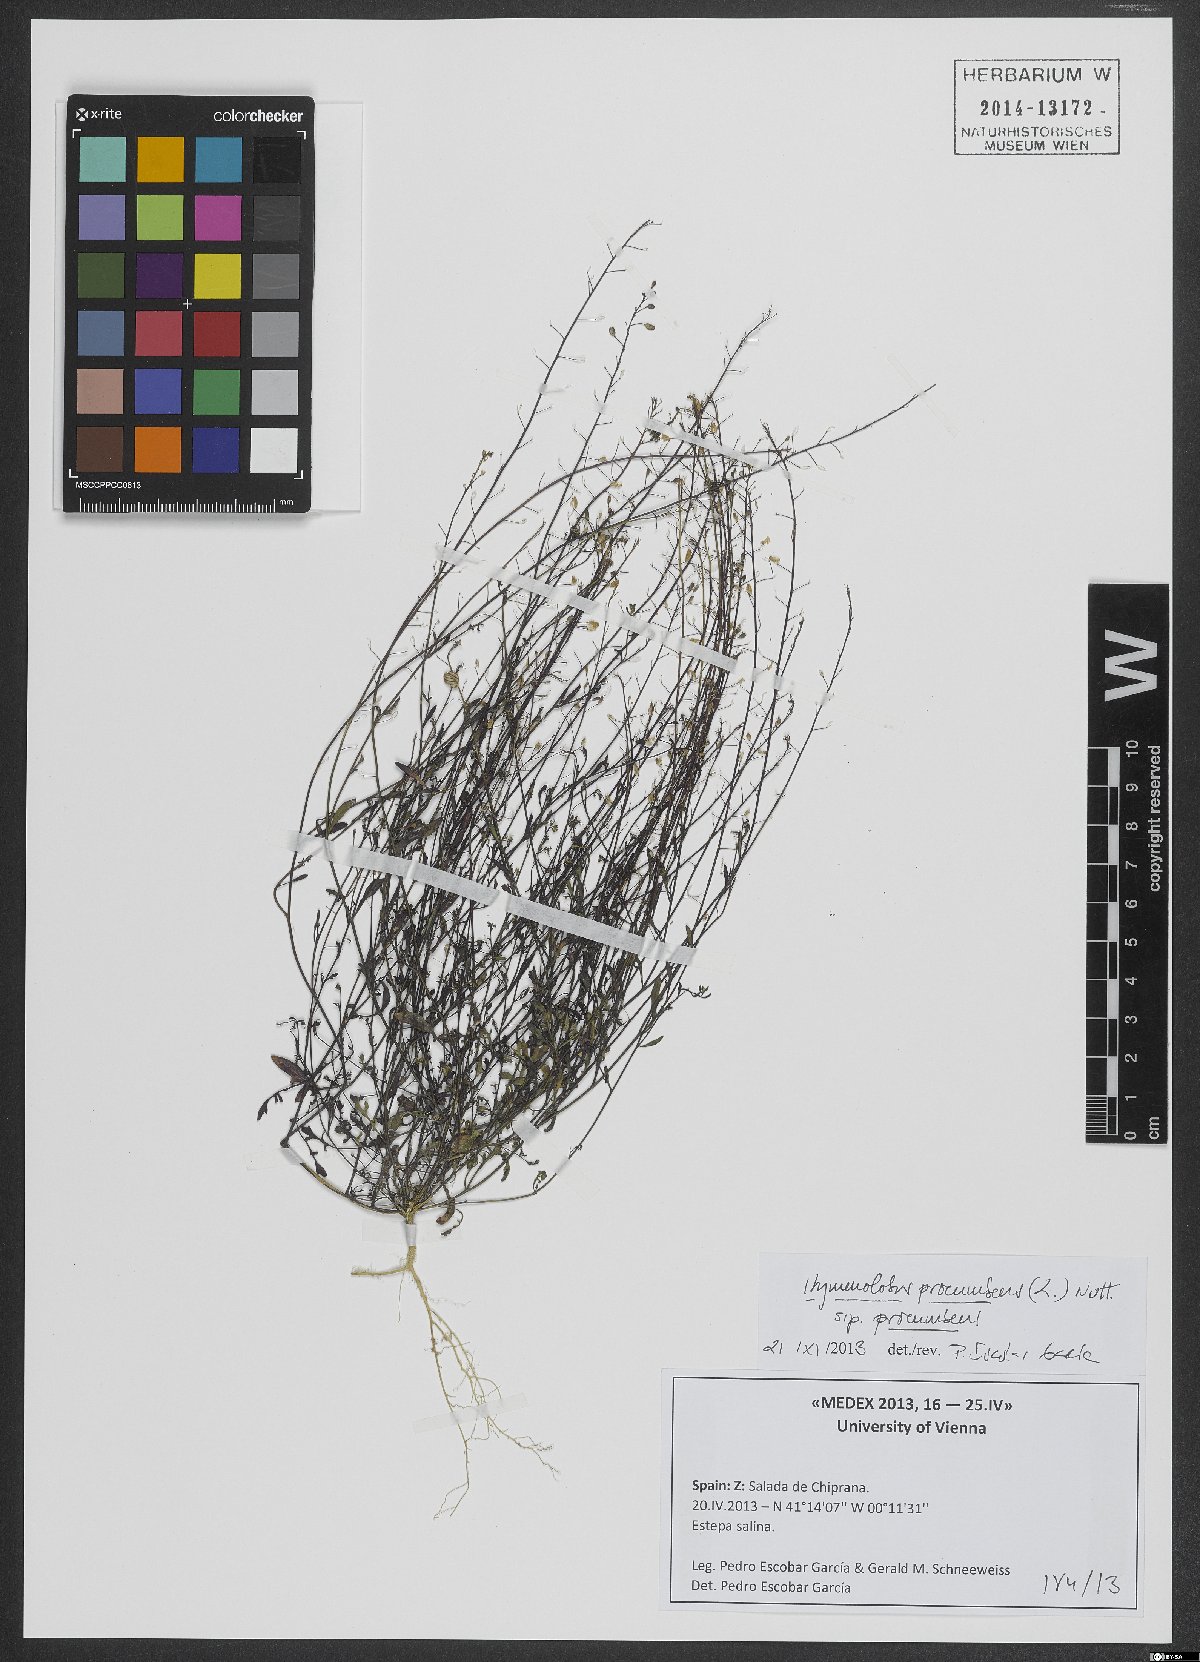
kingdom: Plantae
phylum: Tracheophyta
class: Magnoliopsida
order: Brassicales
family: Brassicaceae
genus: Hornungia
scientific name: Hornungia procumbens
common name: Oval purse
